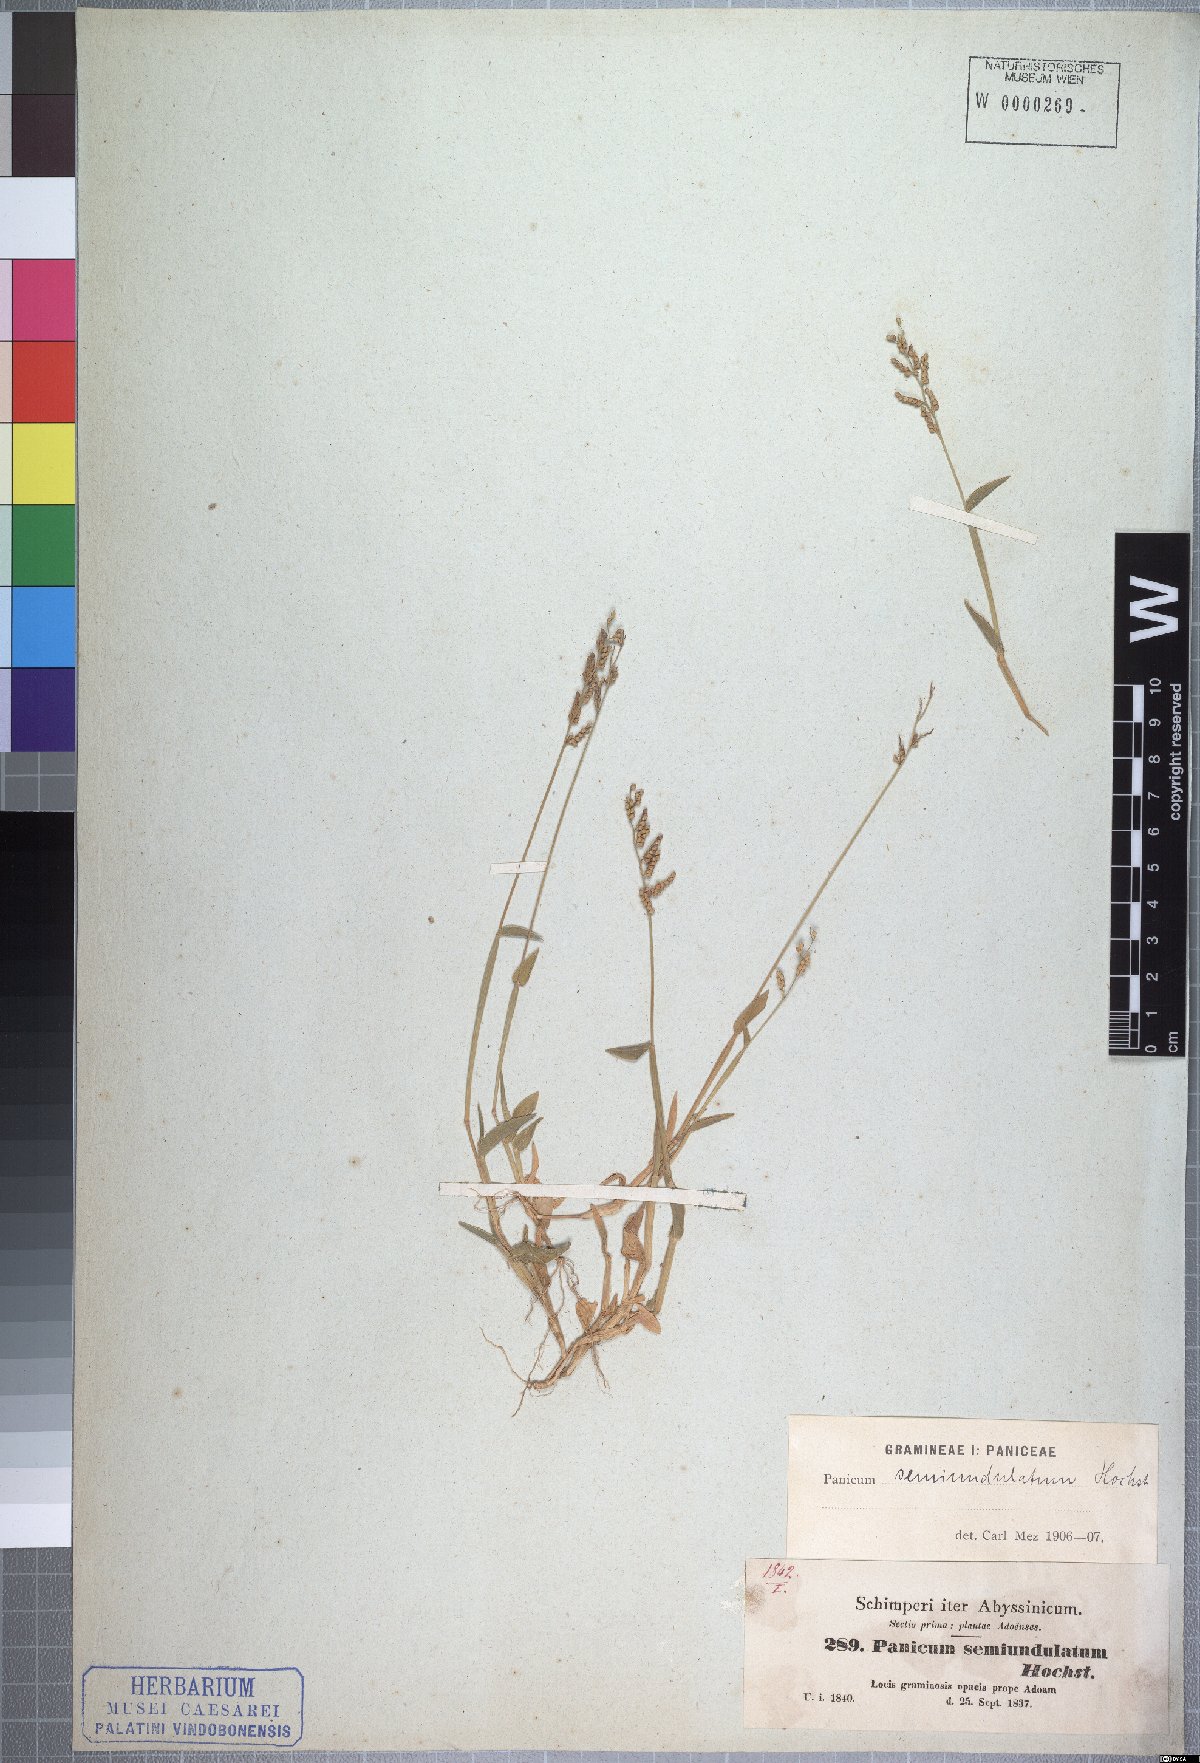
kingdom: Plantae
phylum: Tracheophyta
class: Liliopsida
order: Poales
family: Poaceae
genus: Urochloa
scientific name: Urochloa semiundulata
